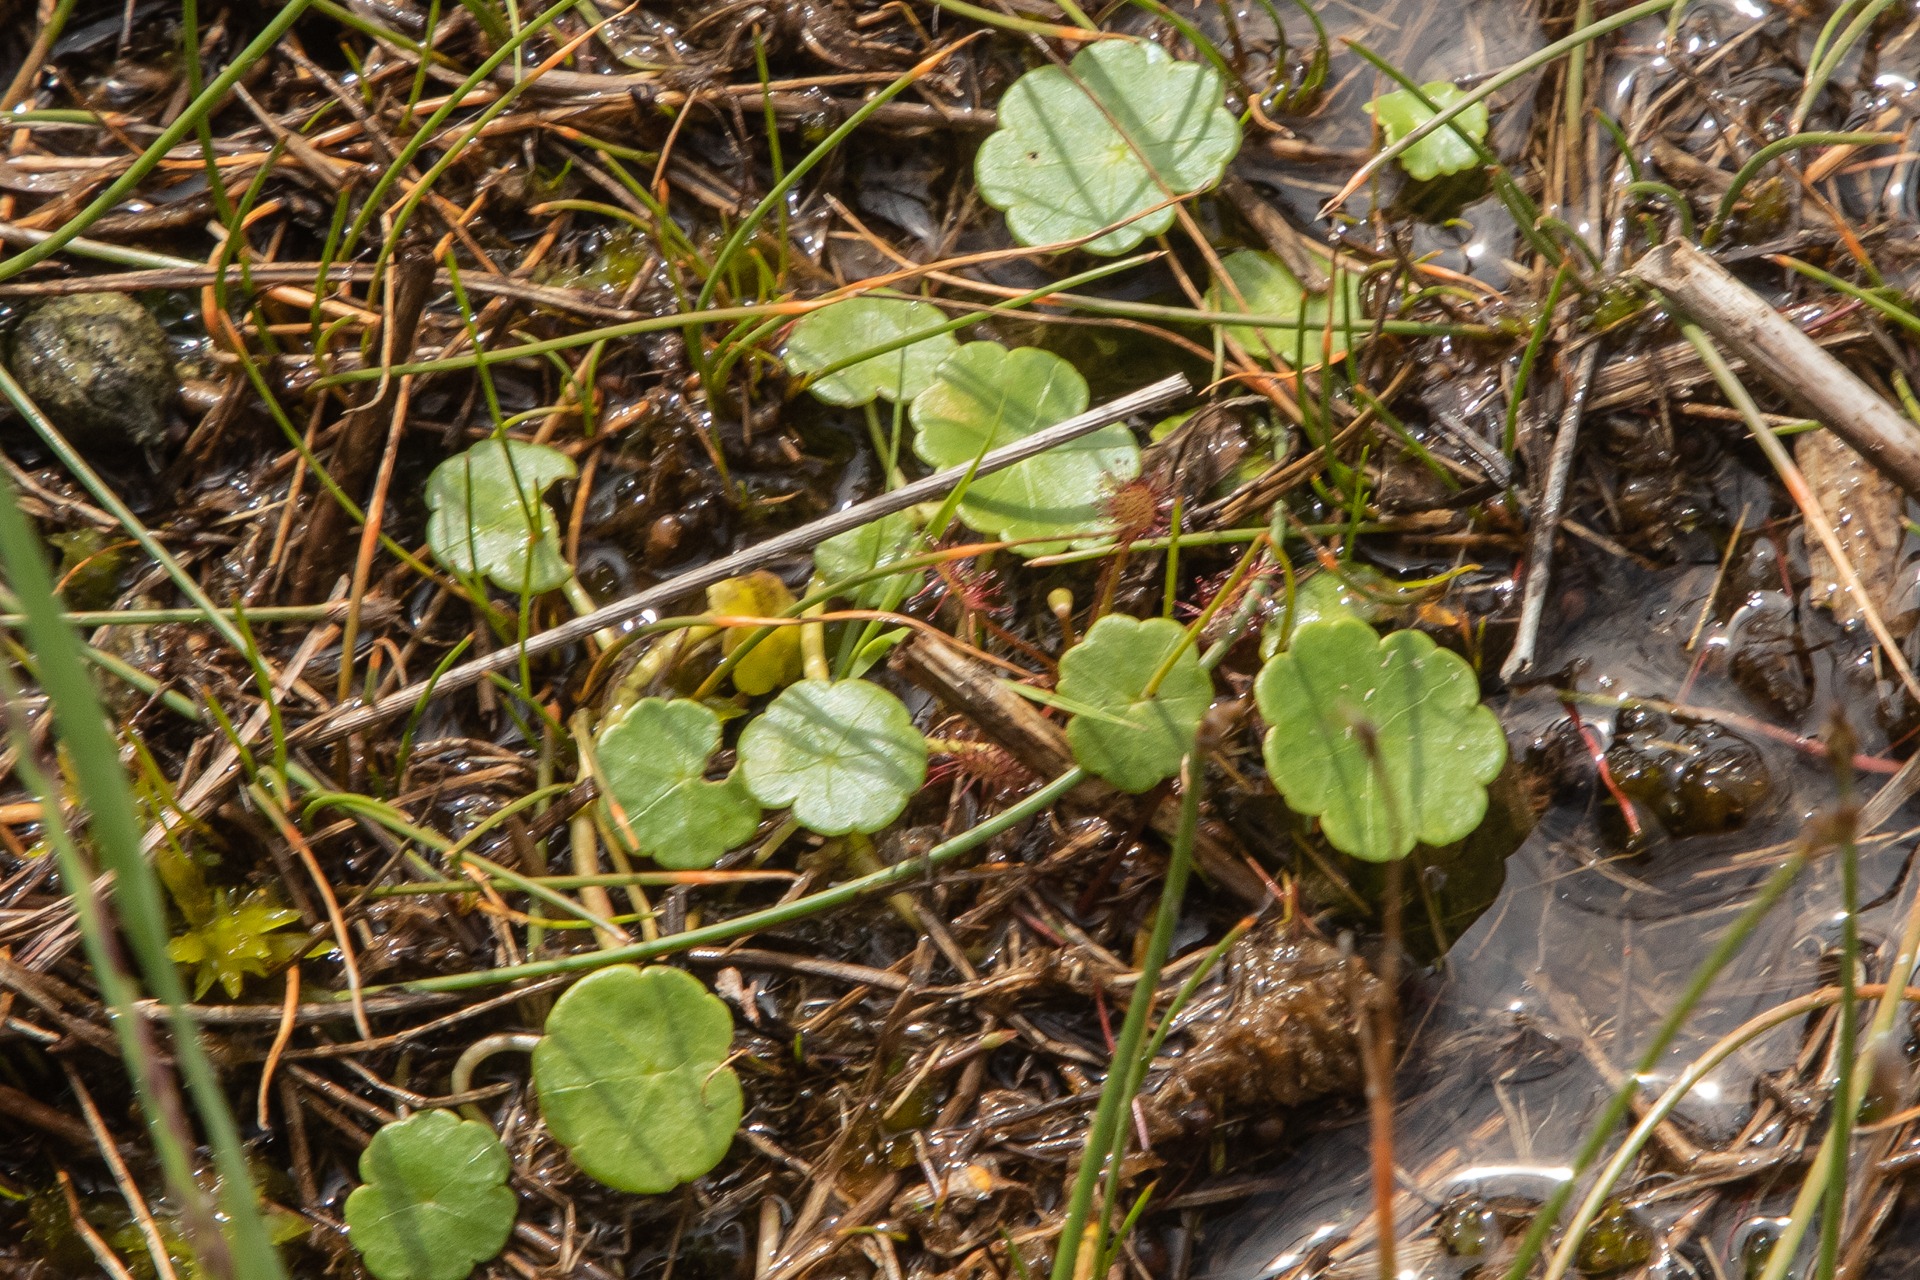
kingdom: Plantae
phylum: Tracheophyta
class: Magnoliopsida
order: Apiales
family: Araliaceae
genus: Hydrocotyle
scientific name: Hydrocotyle vulgaris
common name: Vandnavle
